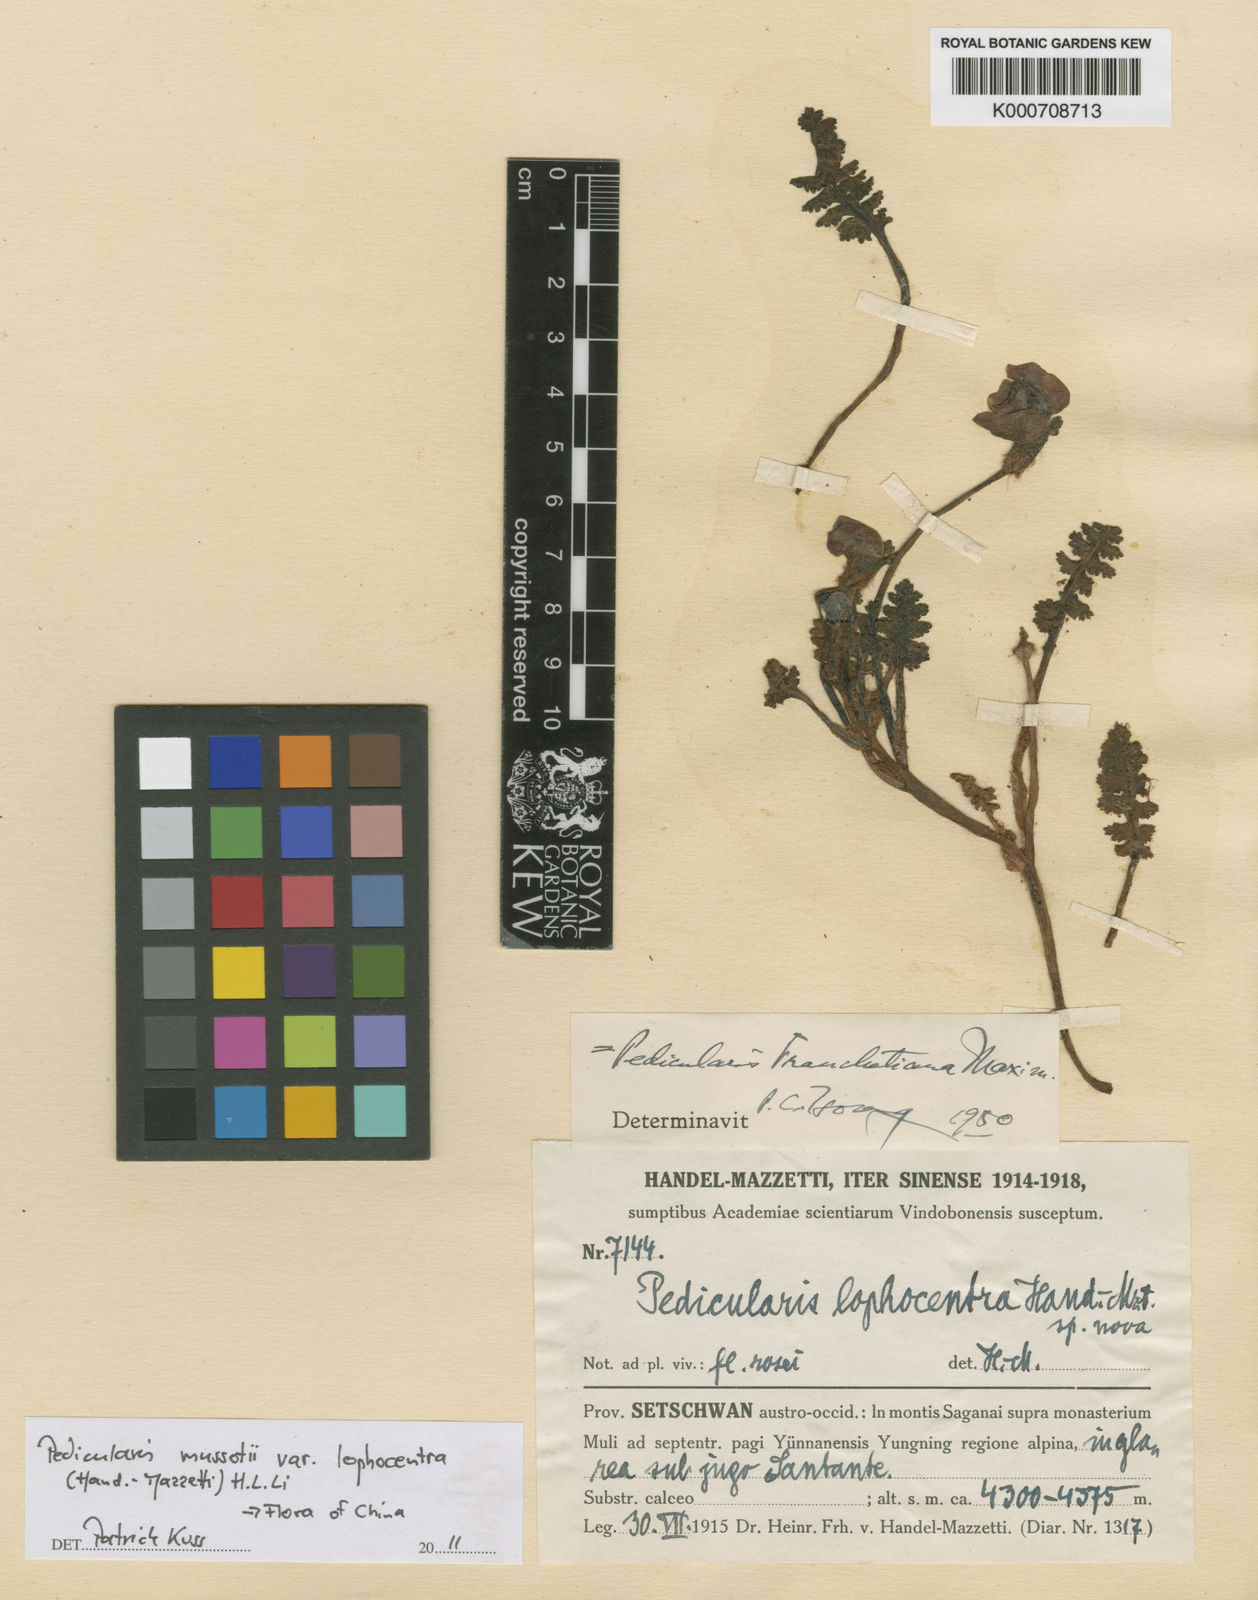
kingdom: Plantae
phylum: Tracheophyta
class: Magnoliopsida
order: Lamiales
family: Orobanchaceae
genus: Pedicularis
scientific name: Pedicularis
